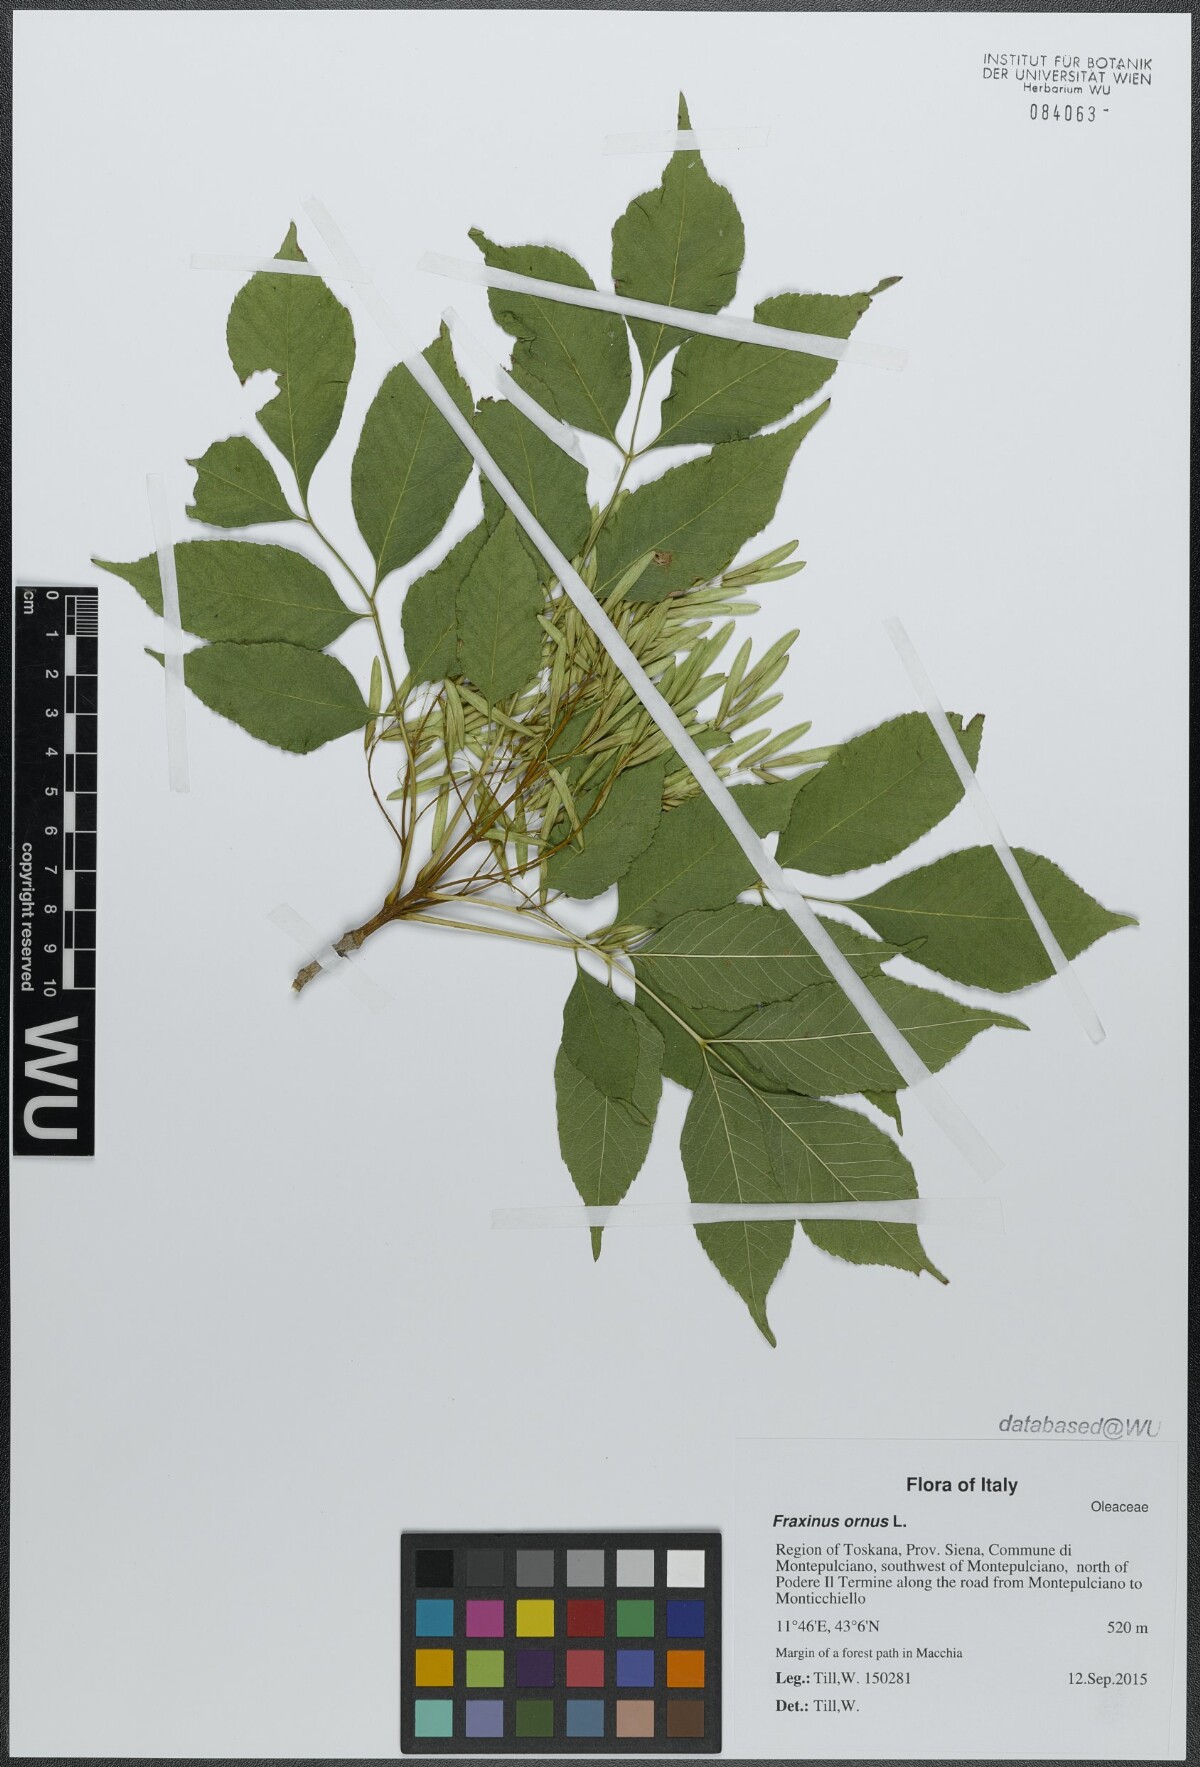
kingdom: Plantae
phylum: Tracheophyta
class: Magnoliopsida
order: Lamiales
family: Oleaceae
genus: Fraxinus
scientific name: Fraxinus ornus
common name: Manna ash
